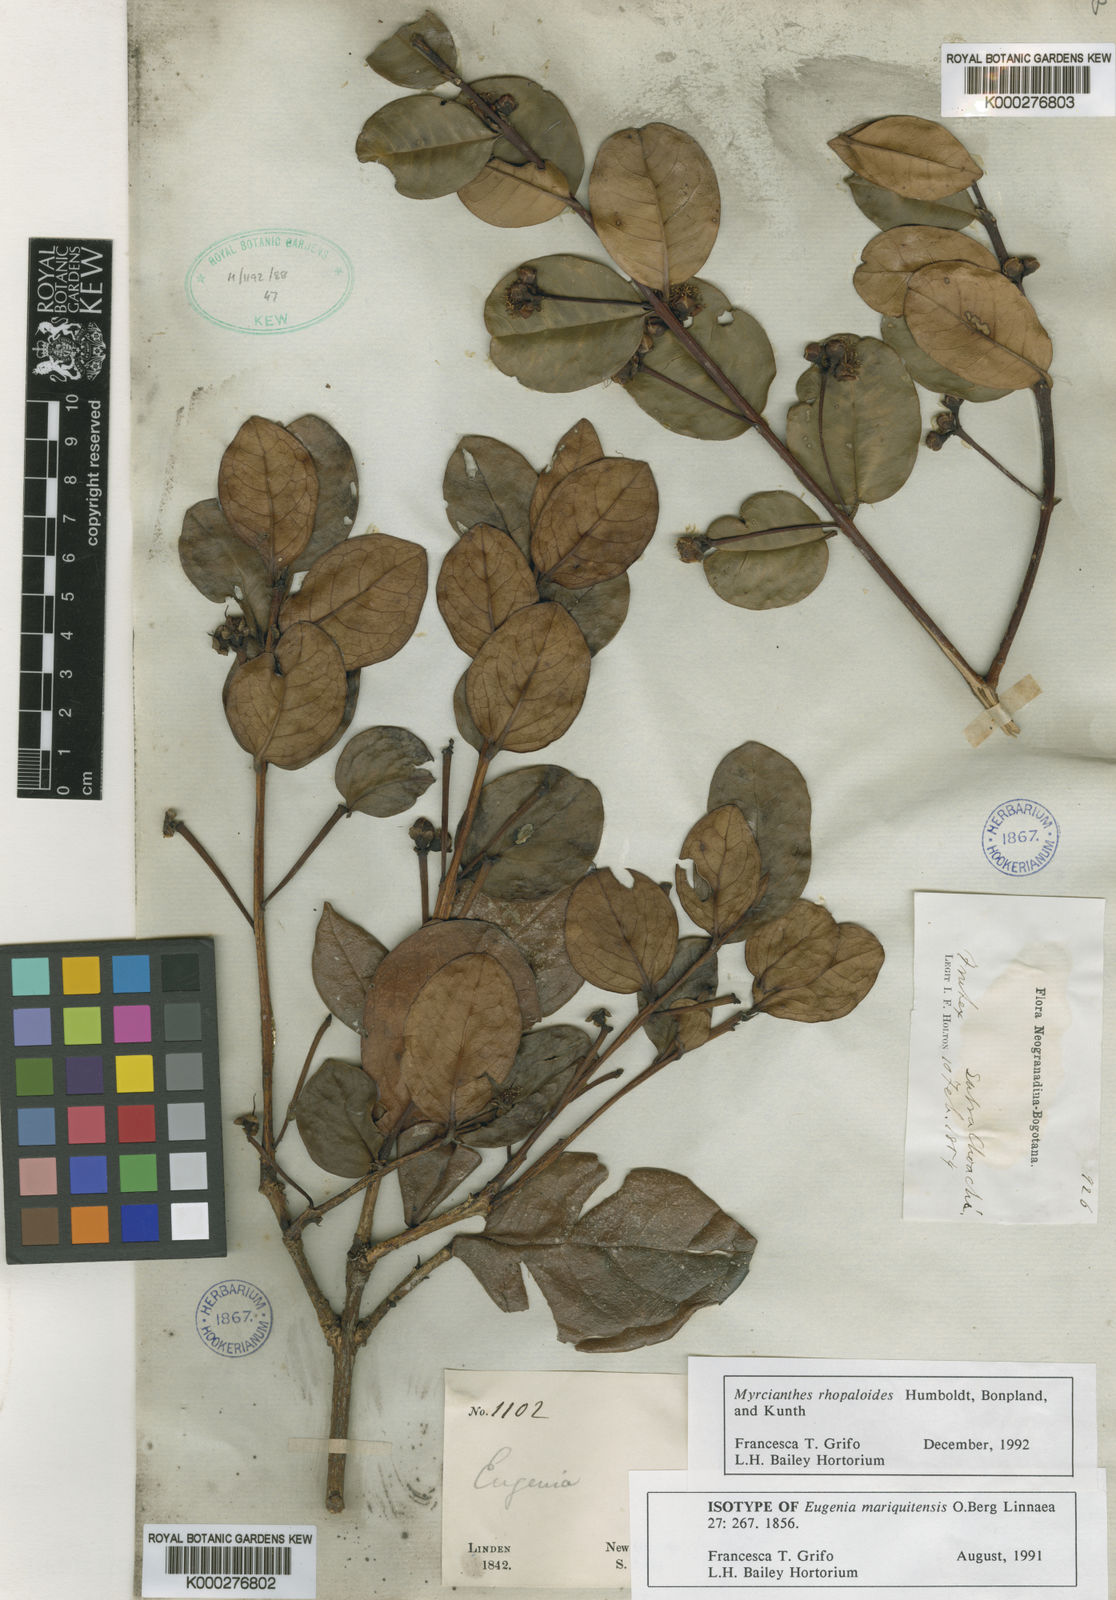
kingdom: Plantae
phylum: Tracheophyta
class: Magnoliopsida
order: Myrtales
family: Myrtaceae
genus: Myrcianthes
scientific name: Myrcianthes rhopaloides
